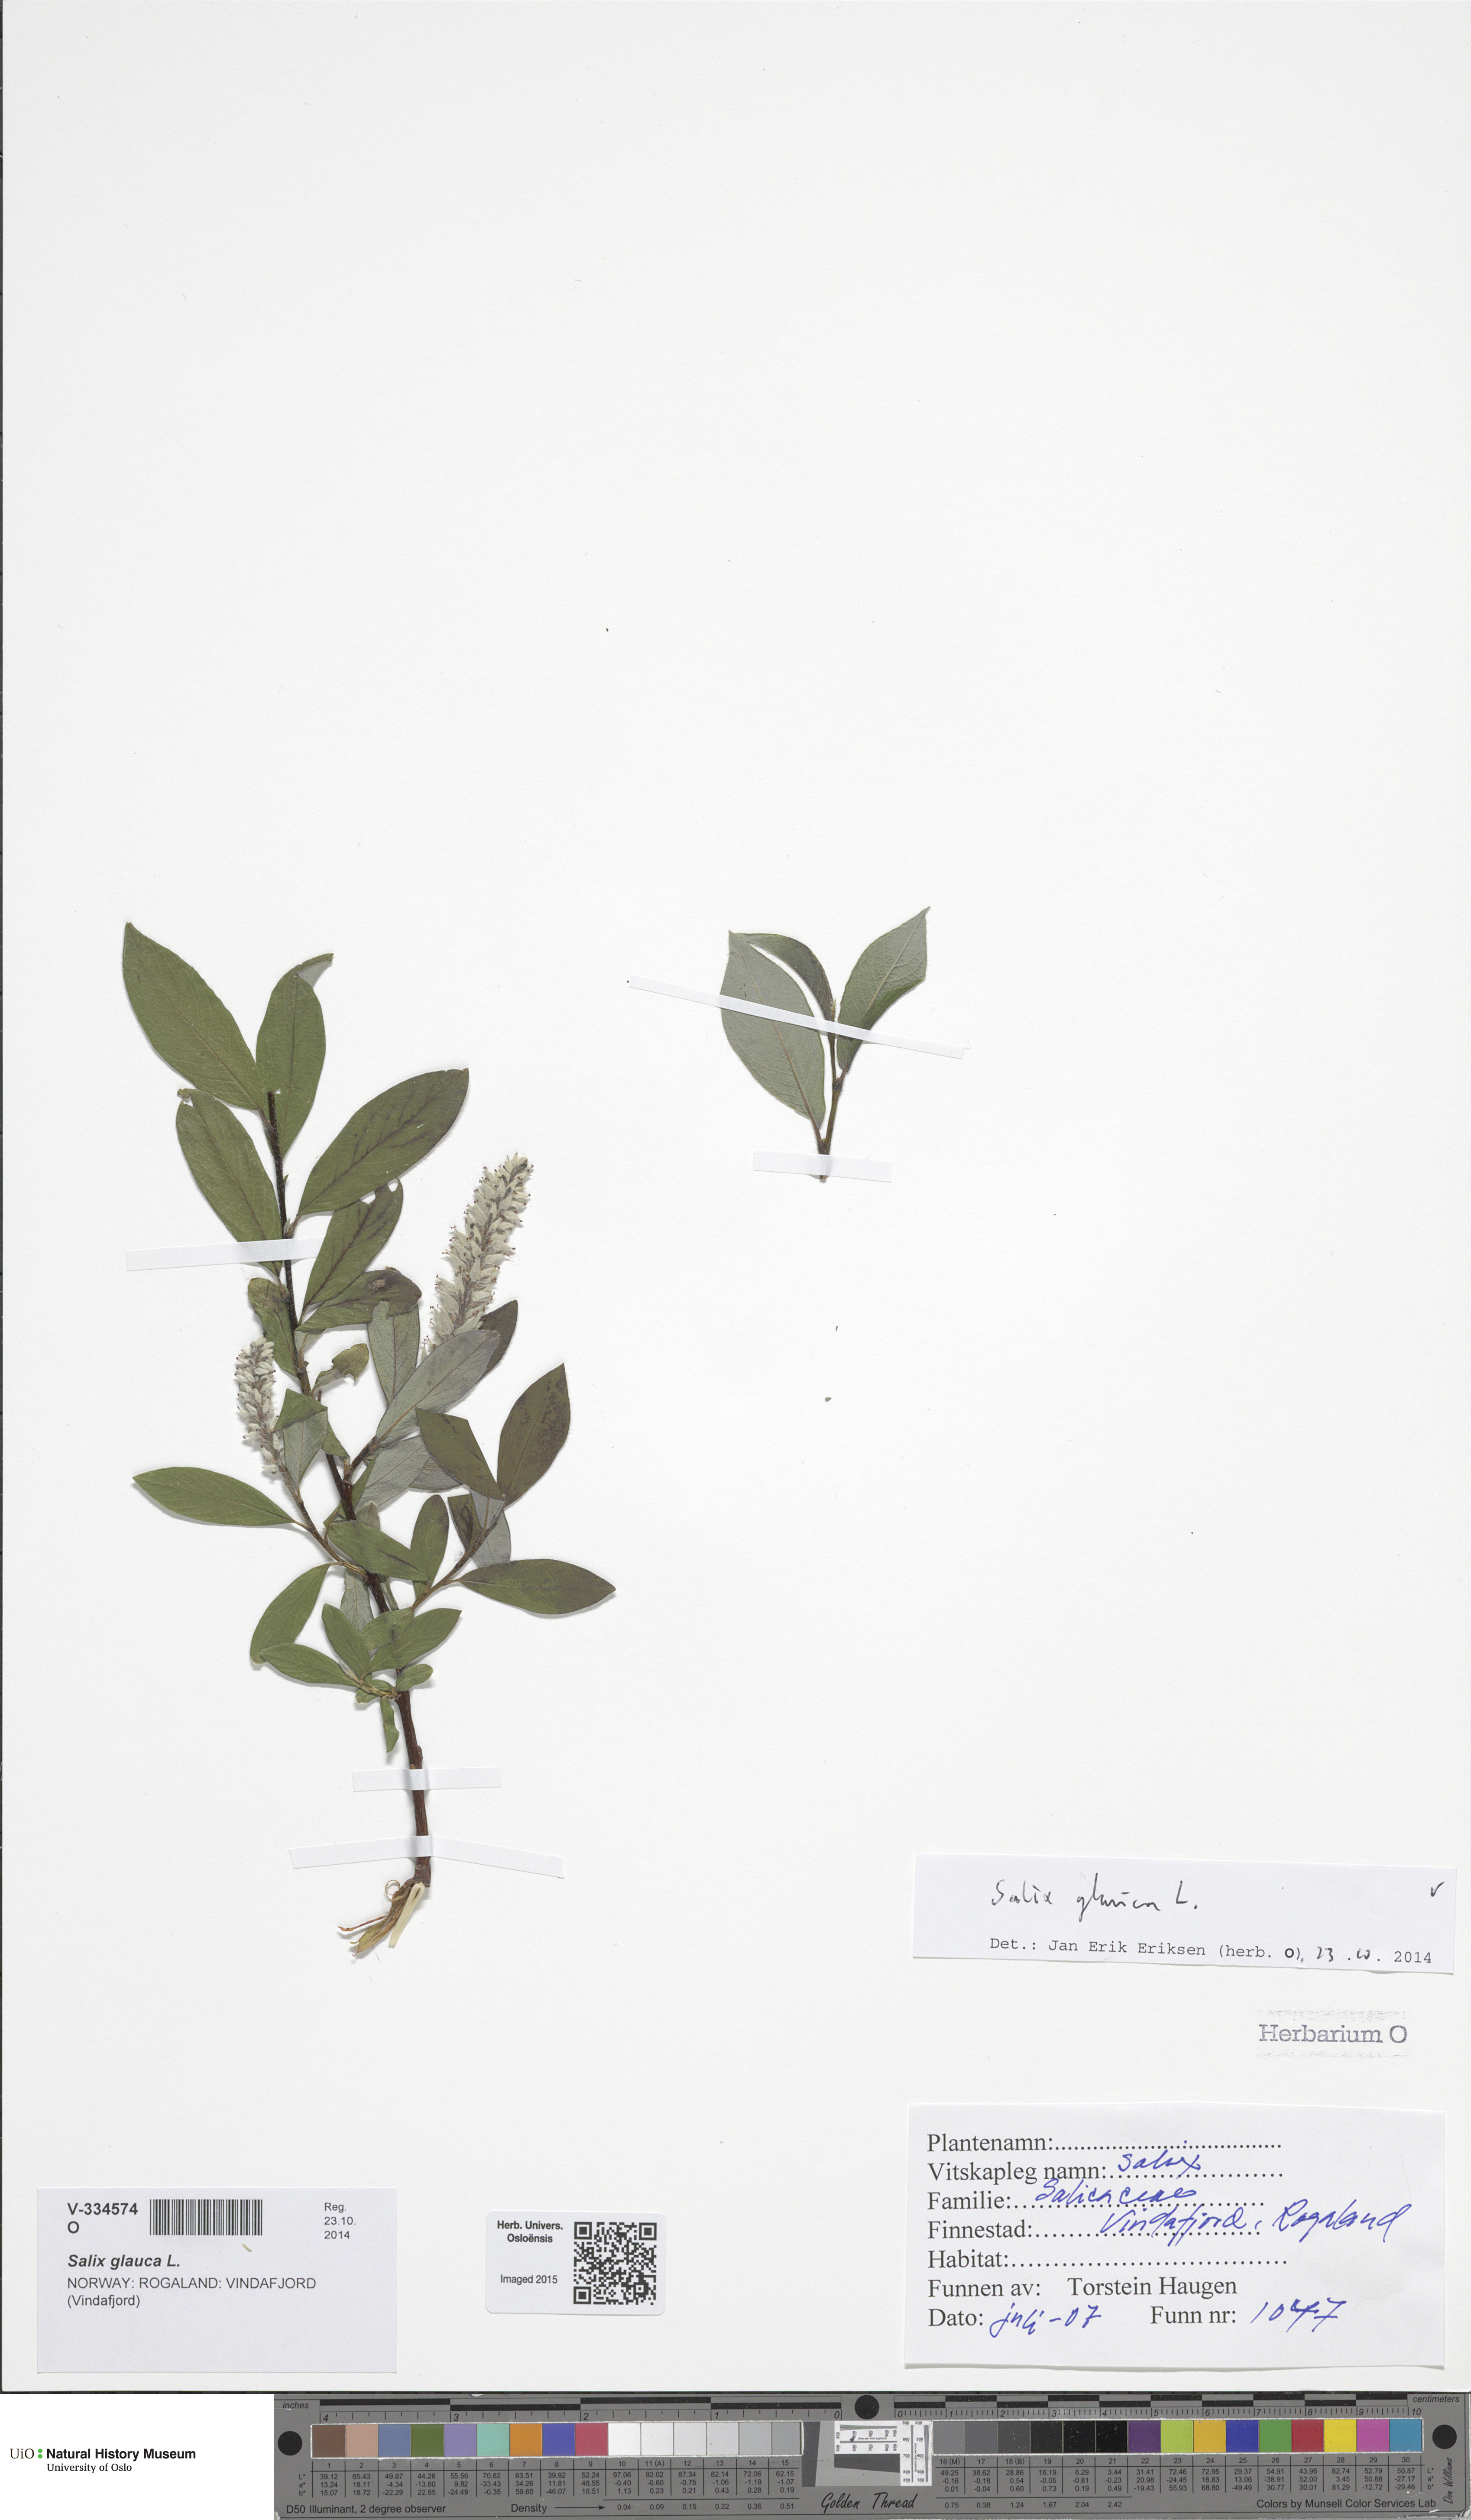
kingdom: Plantae
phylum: Tracheophyta
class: Magnoliopsida
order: Malpighiales
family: Salicaceae
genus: Salix
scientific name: Salix
